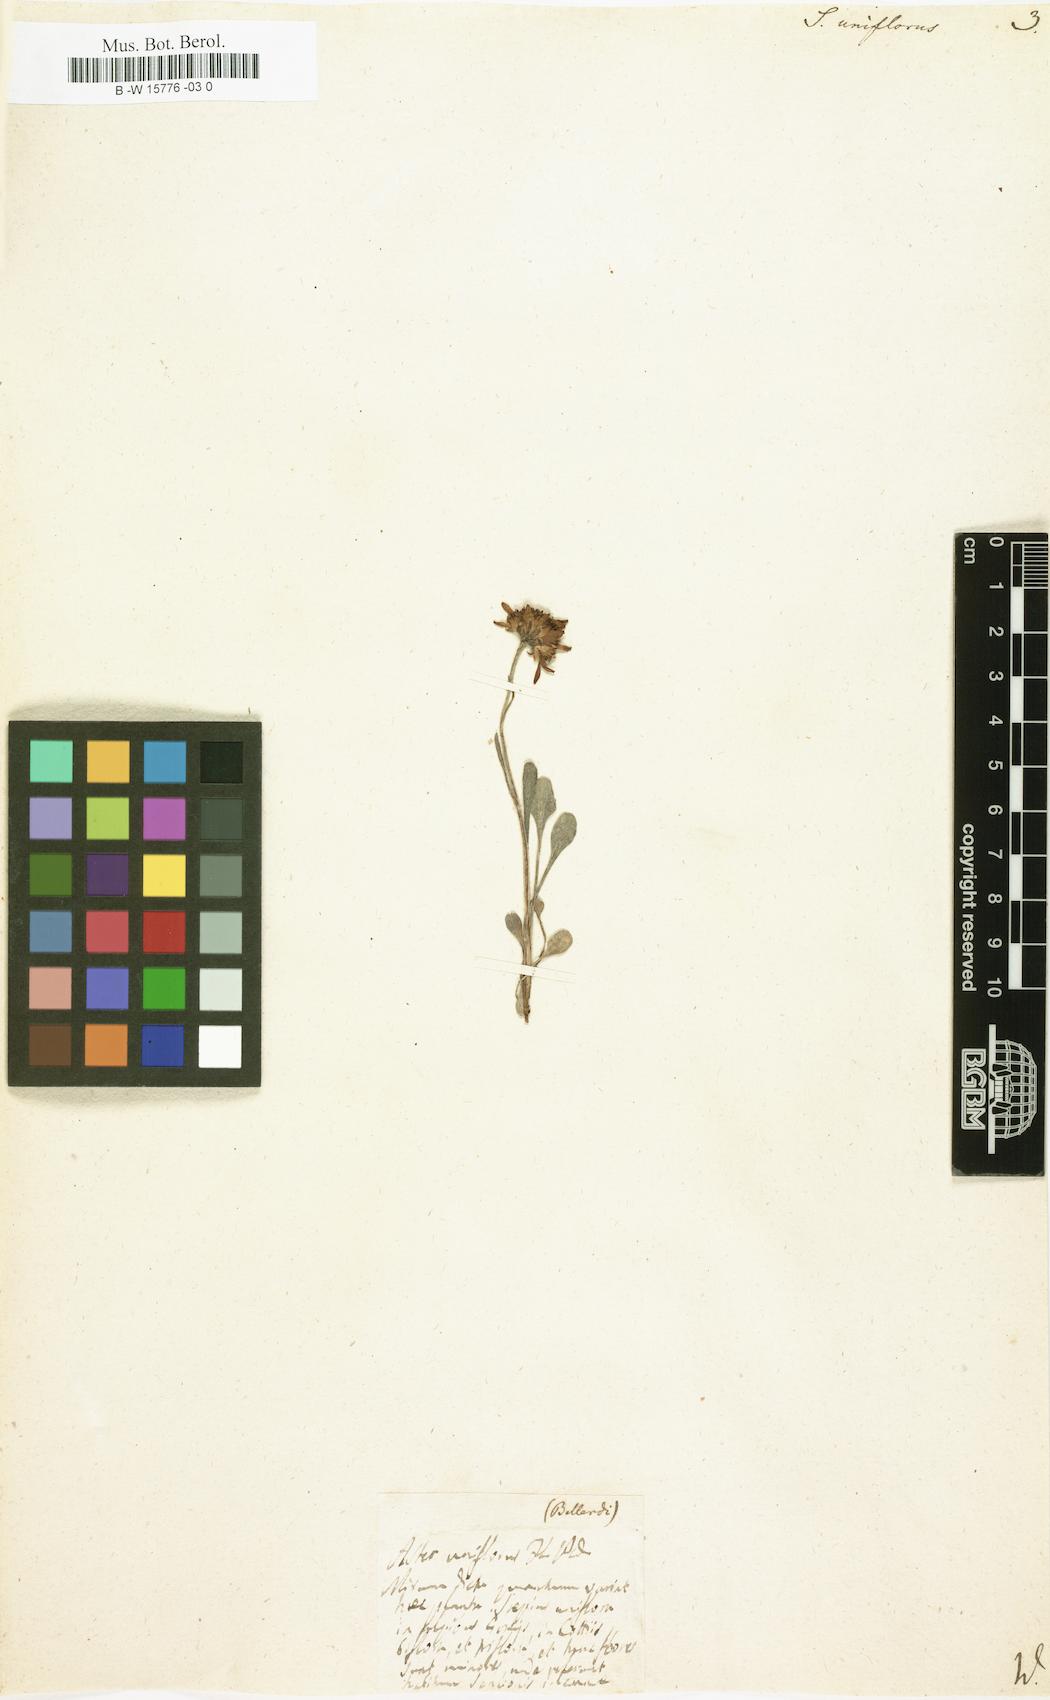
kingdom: Plantae
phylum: Tracheophyta
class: Magnoliopsida
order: Asterales
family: Asteraceae
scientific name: Asteraceae
